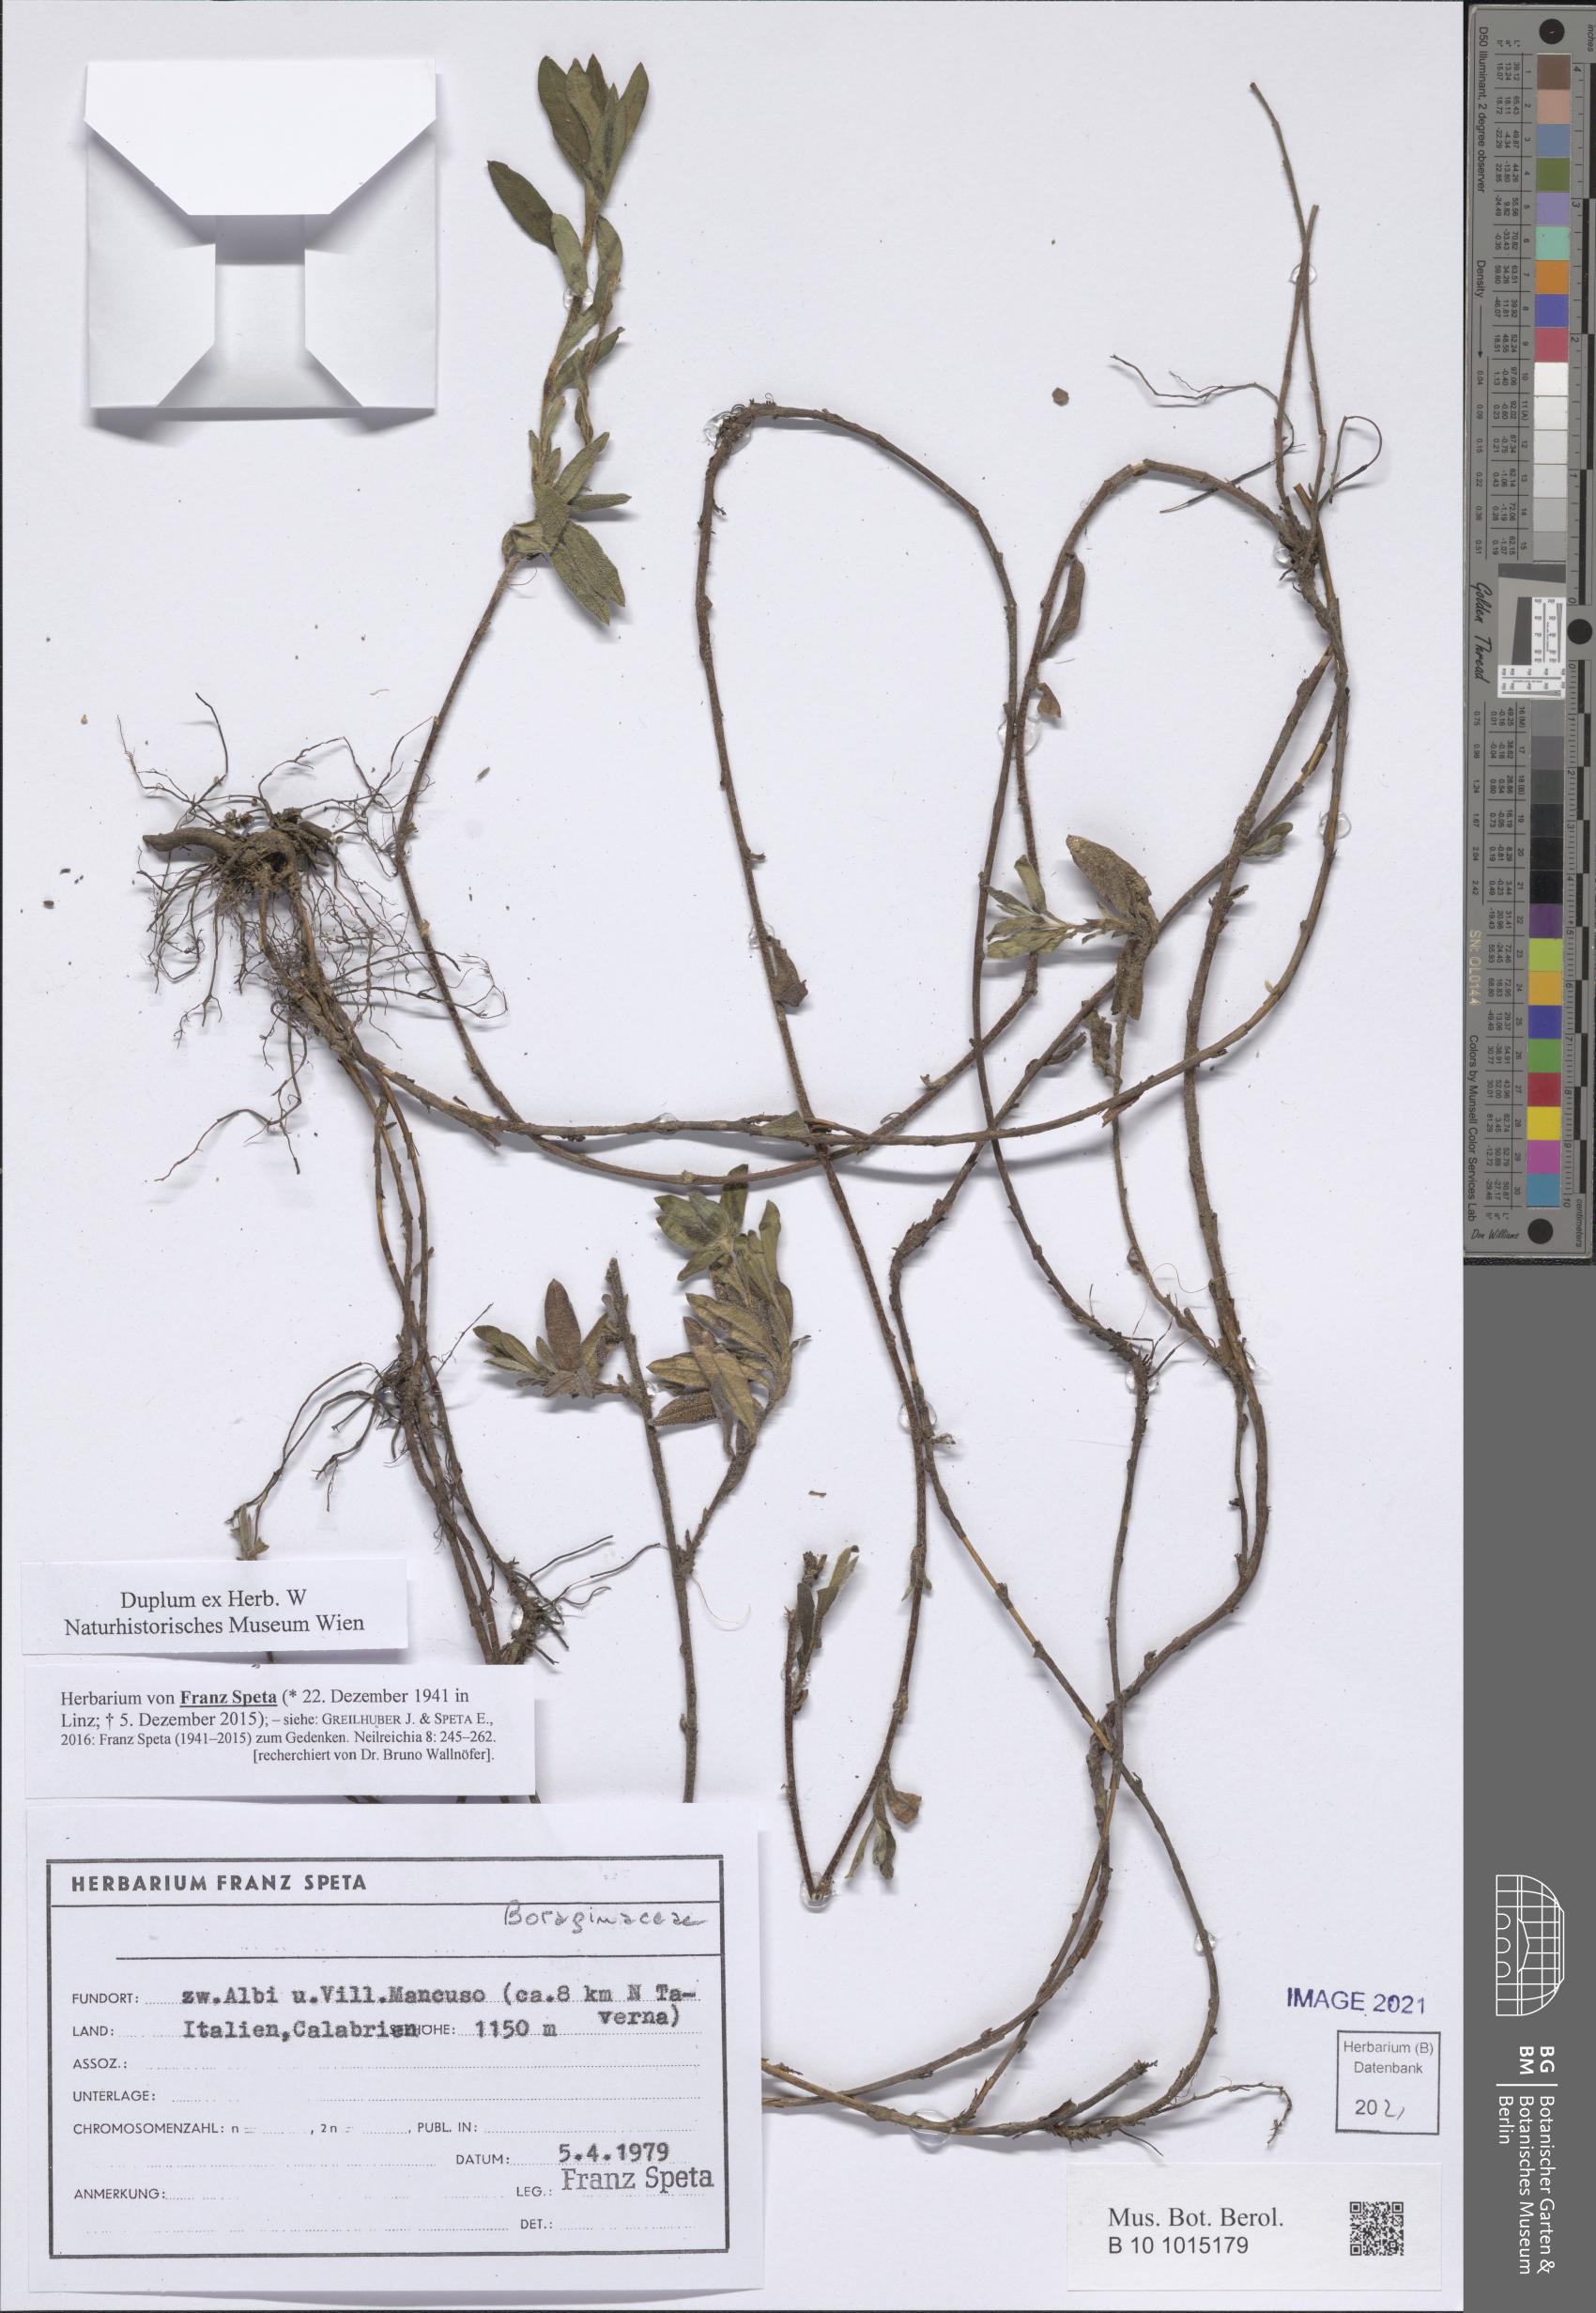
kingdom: Plantae
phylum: Tracheophyta
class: Magnoliopsida
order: Boraginales
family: Boraginaceae
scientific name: Boraginaceae
